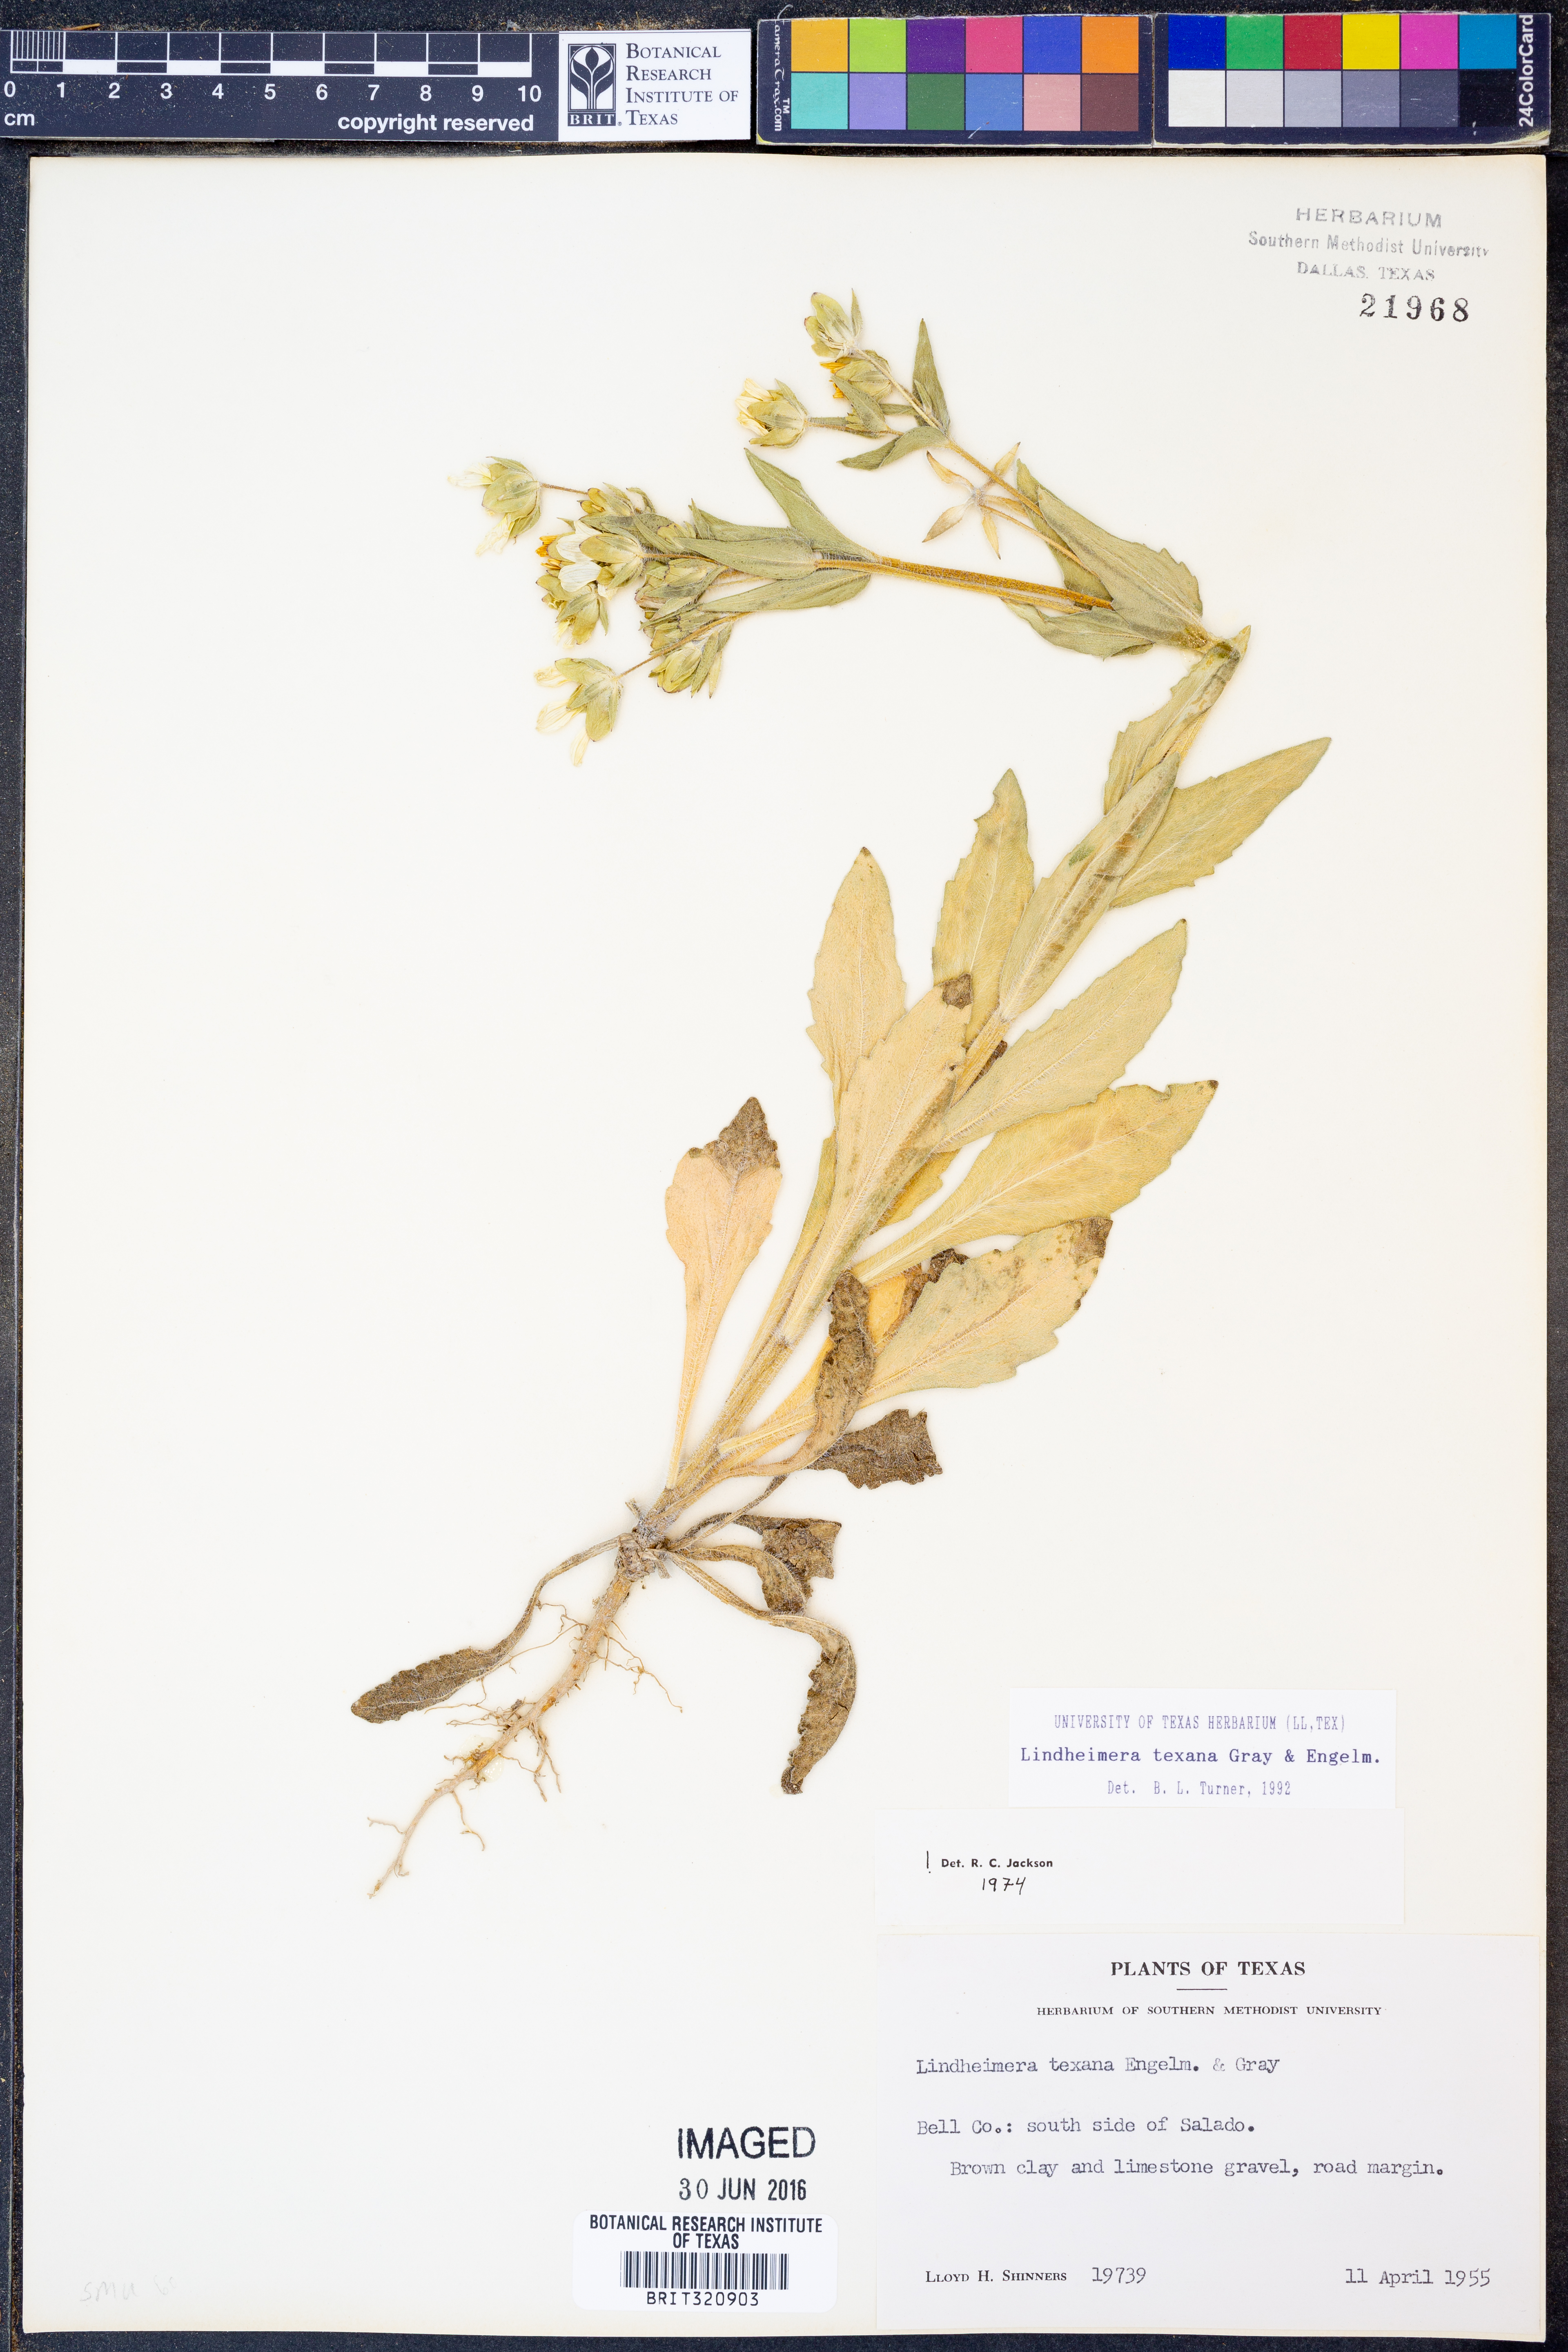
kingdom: Plantae
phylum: Tracheophyta
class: Magnoliopsida
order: Asterales
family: Asteraceae
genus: Lindheimera
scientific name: Lindheimera texana
